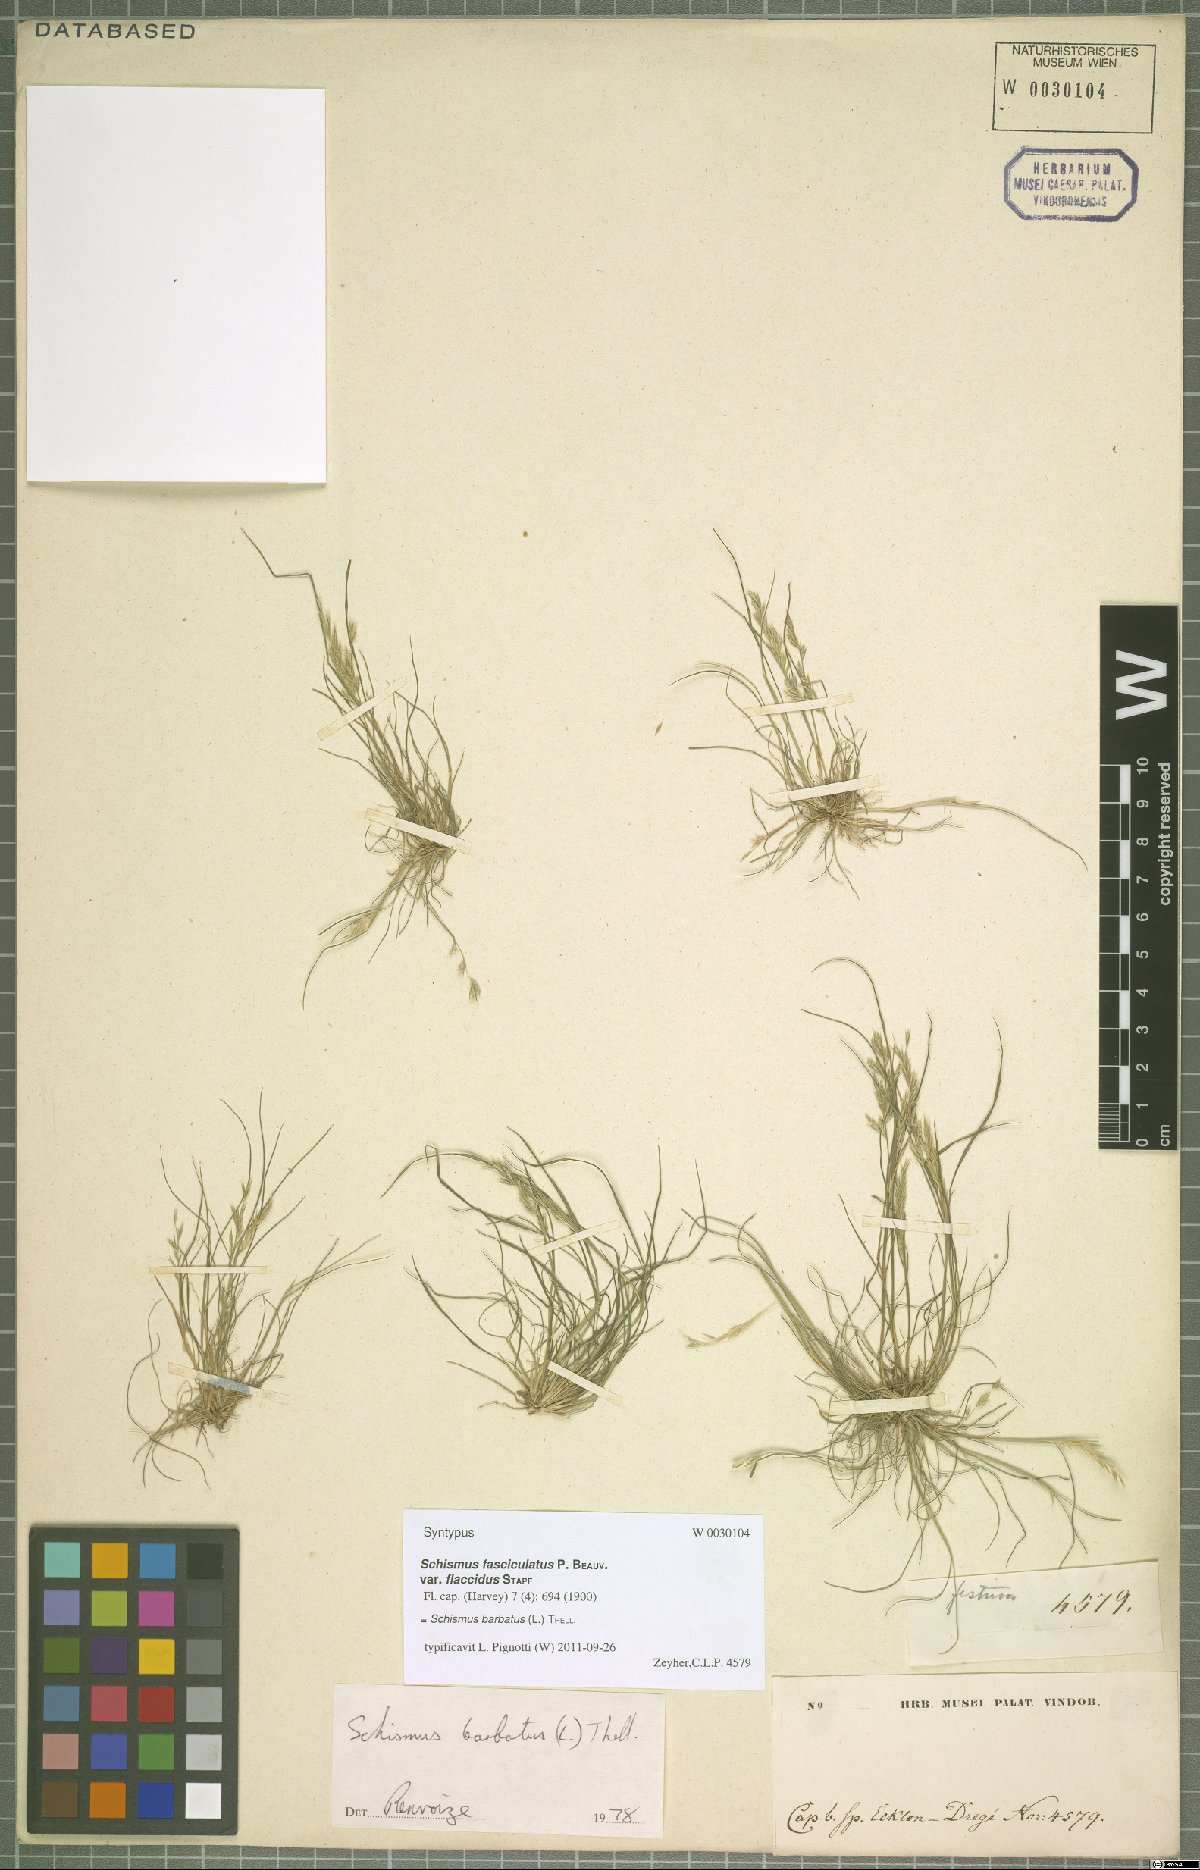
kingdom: Plantae
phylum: Tracheophyta
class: Liliopsida
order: Poales
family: Poaceae
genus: Schismus
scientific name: Schismus barbatus
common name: Kelch-grass
